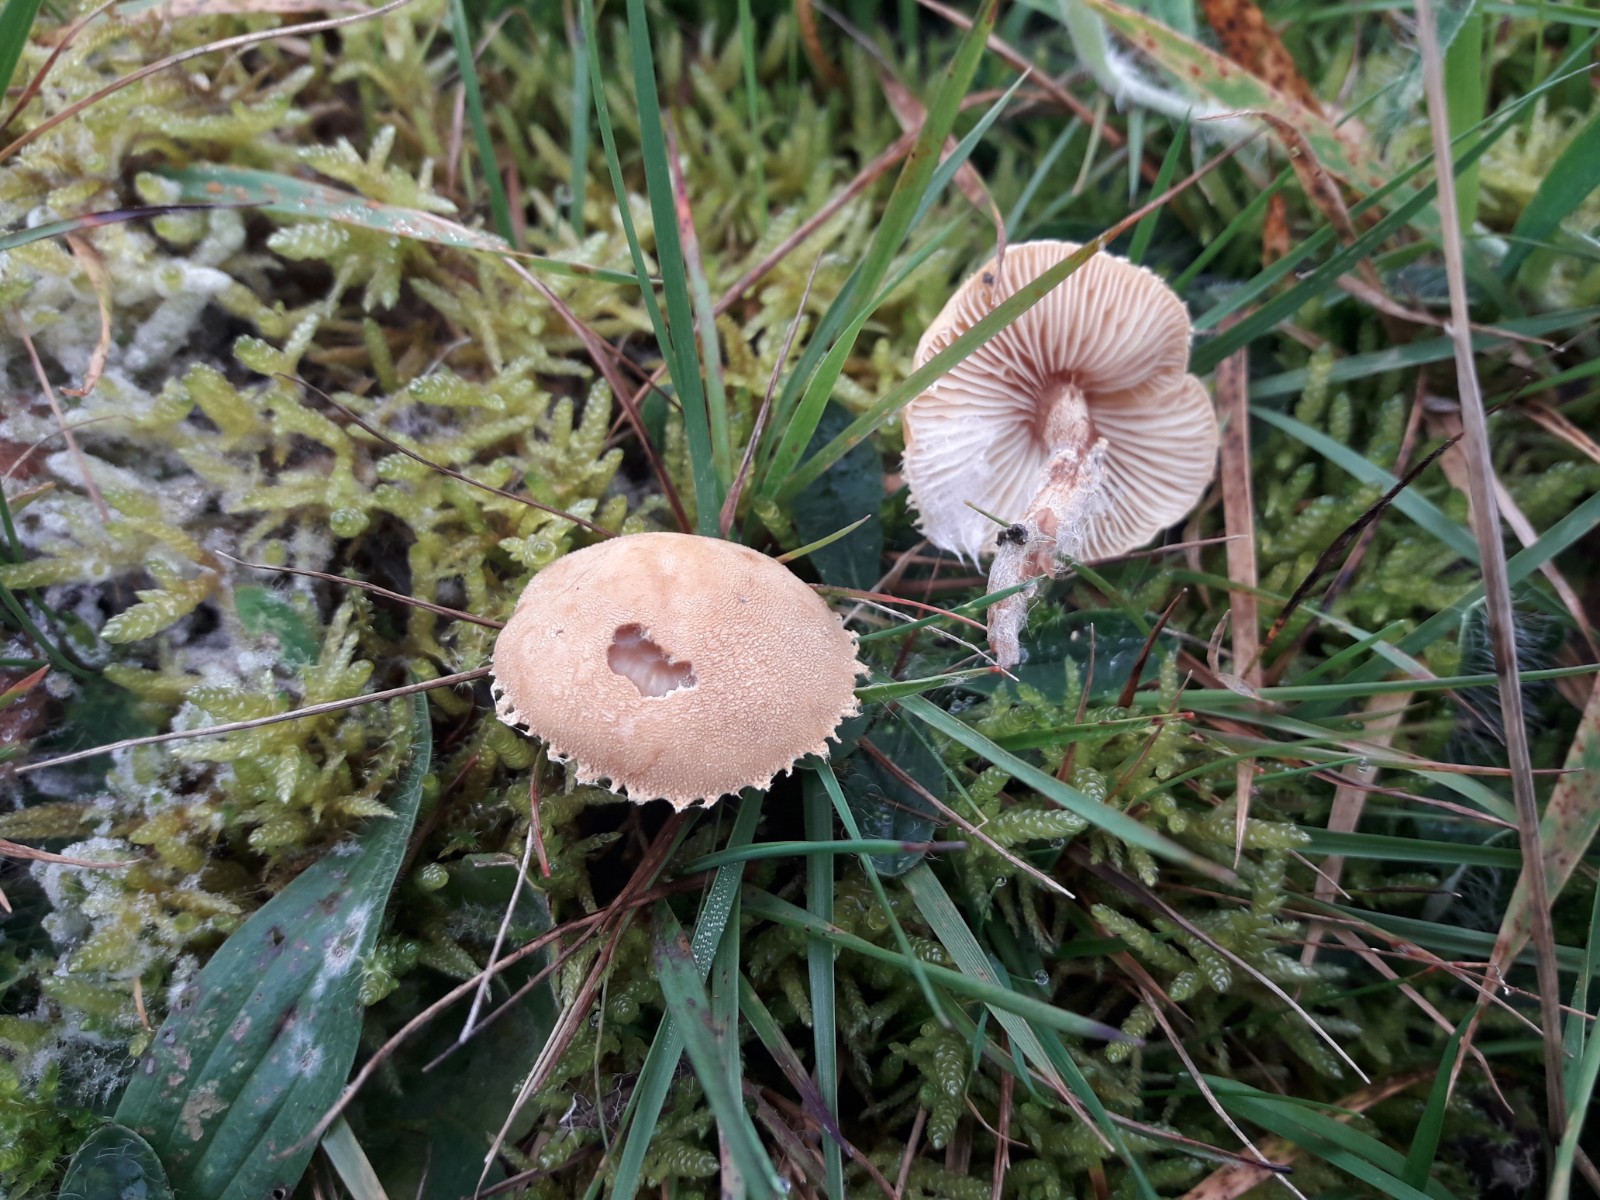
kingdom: Fungi
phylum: Basidiomycota
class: Agaricomycetes
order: Agaricales
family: Tricholomataceae
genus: Cystoderma
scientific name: Cystoderma amianthinum
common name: okkergul grynhat
